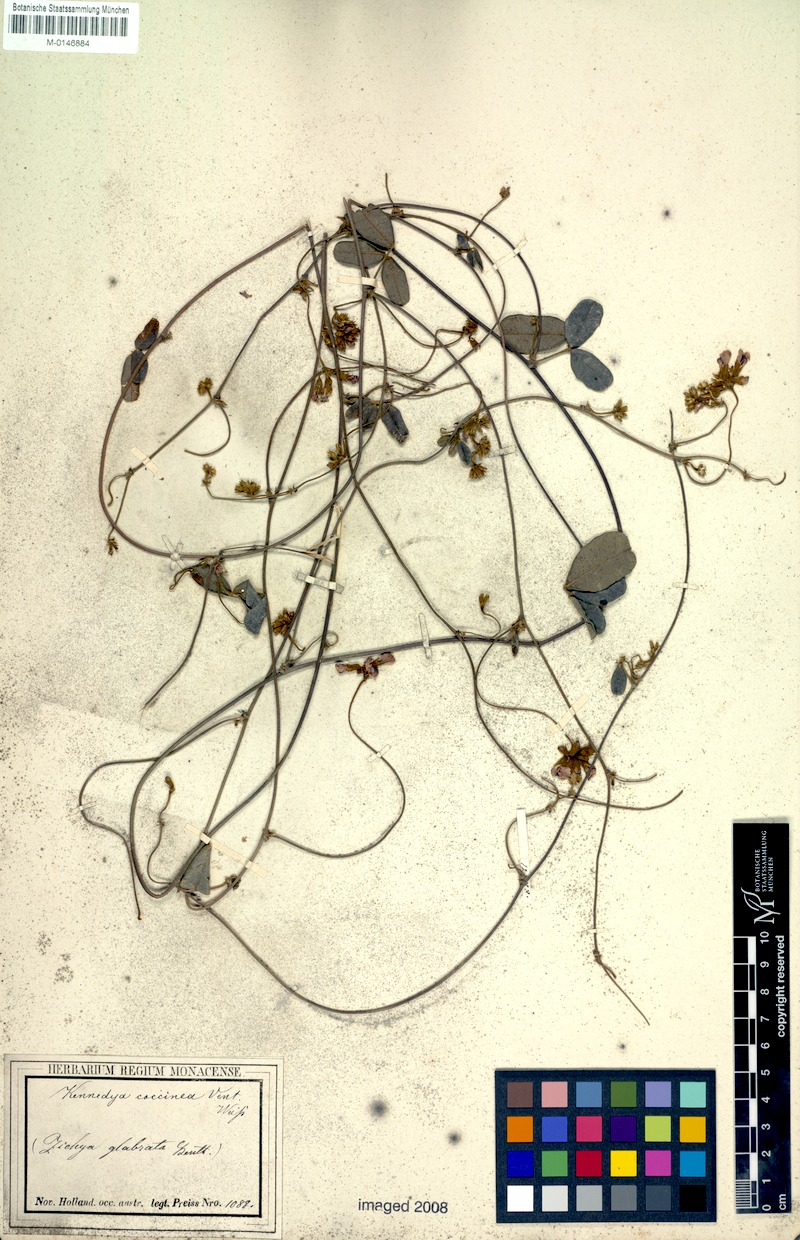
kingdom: Plantae
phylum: Tracheophyta
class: Magnoliopsida
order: Fabales
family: Fabaceae
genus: Kennedia
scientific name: Kennedia coccinea
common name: Coralvine
